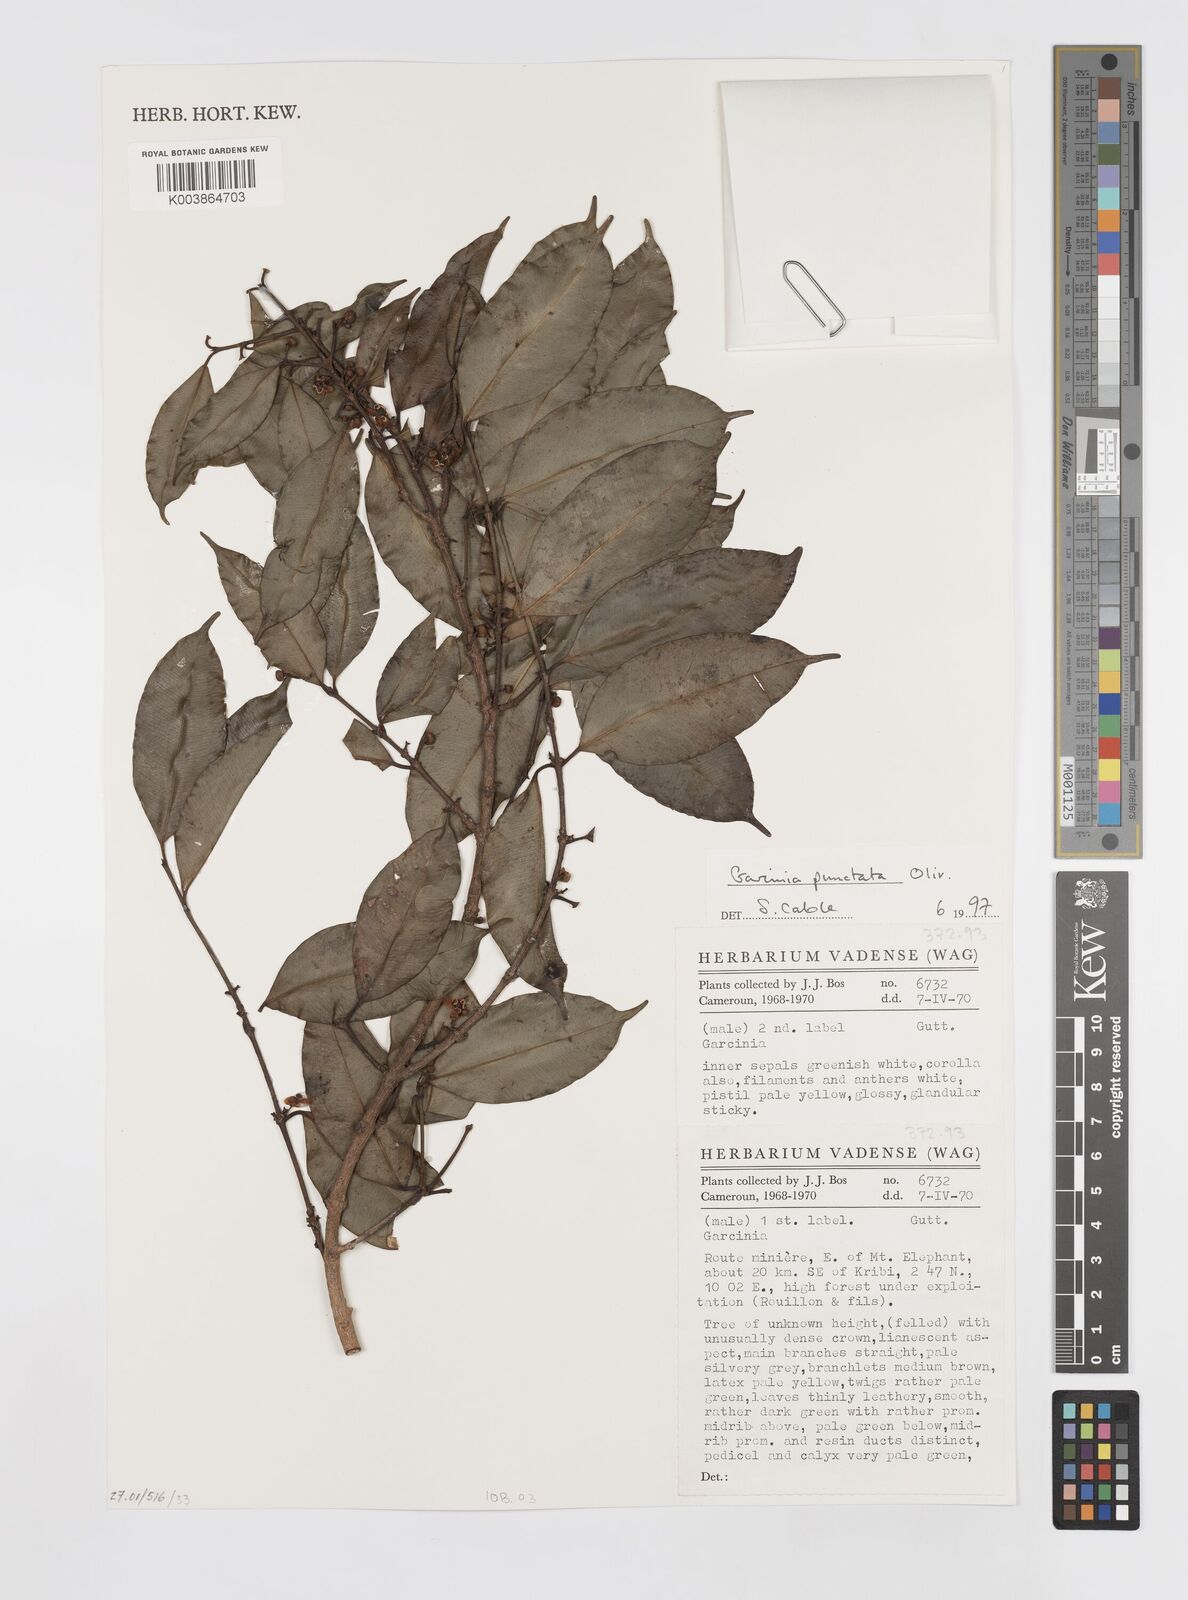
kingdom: Plantae
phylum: Tracheophyta
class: Magnoliopsida
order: Malpighiales
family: Clusiaceae
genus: Garcinia
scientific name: Garcinia punctata
